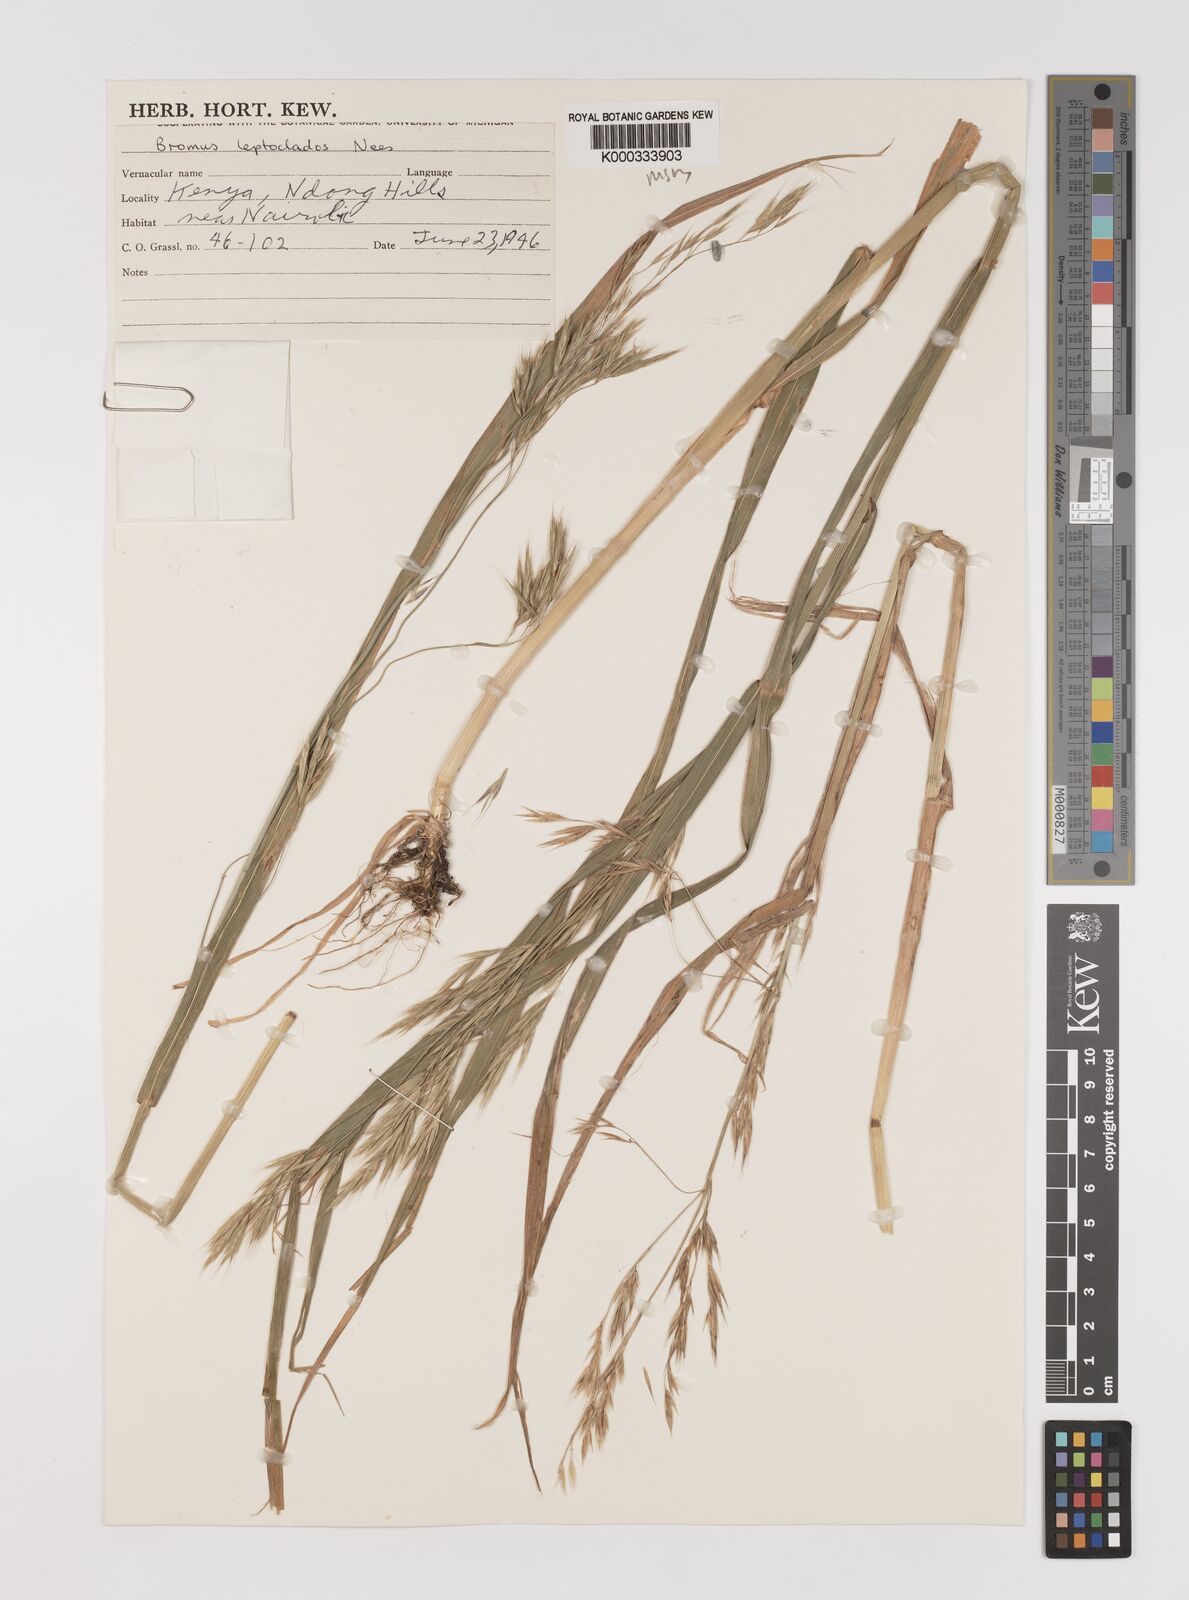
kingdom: Plantae
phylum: Tracheophyta
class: Liliopsida
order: Poales
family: Poaceae
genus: Bromus
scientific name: Bromus leptoclados
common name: Mountain bromegrass
